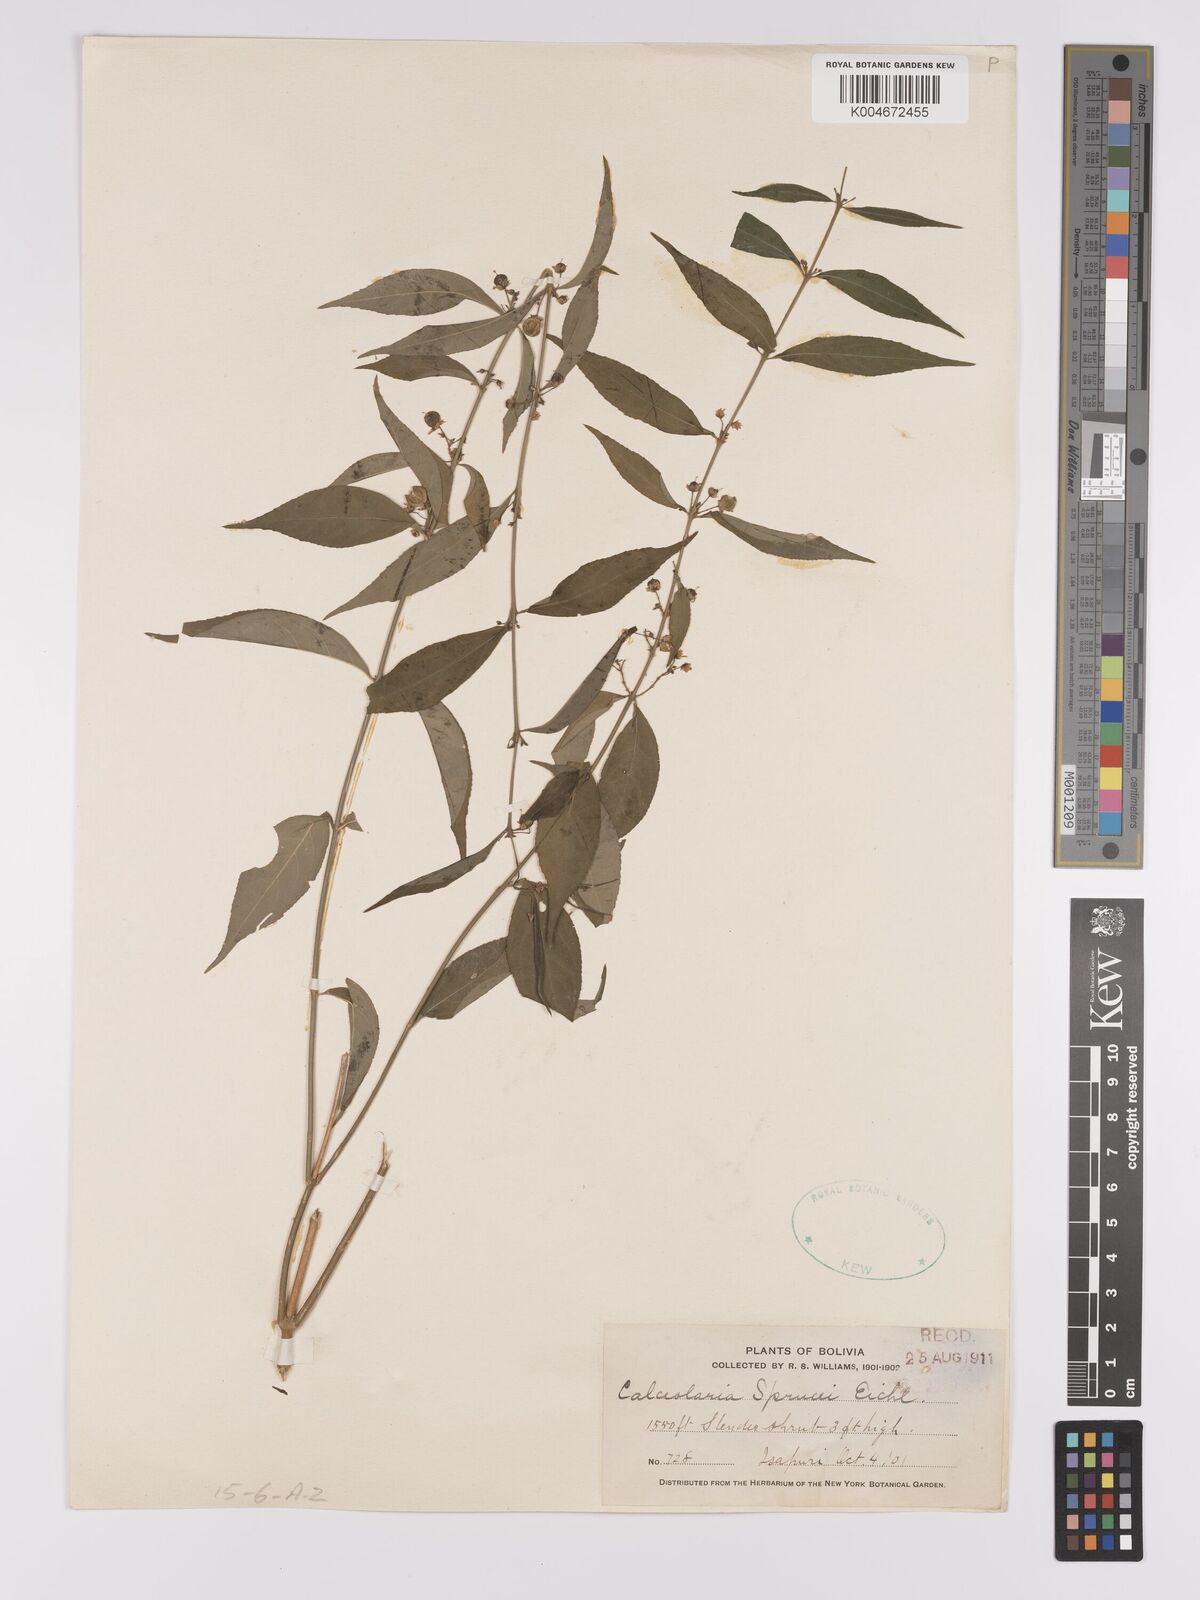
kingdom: Plantae
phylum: Tracheophyta
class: Magnoliopsida
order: Malpighiales
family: Violaceae
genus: Pombalia
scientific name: Pombalia sprucei
